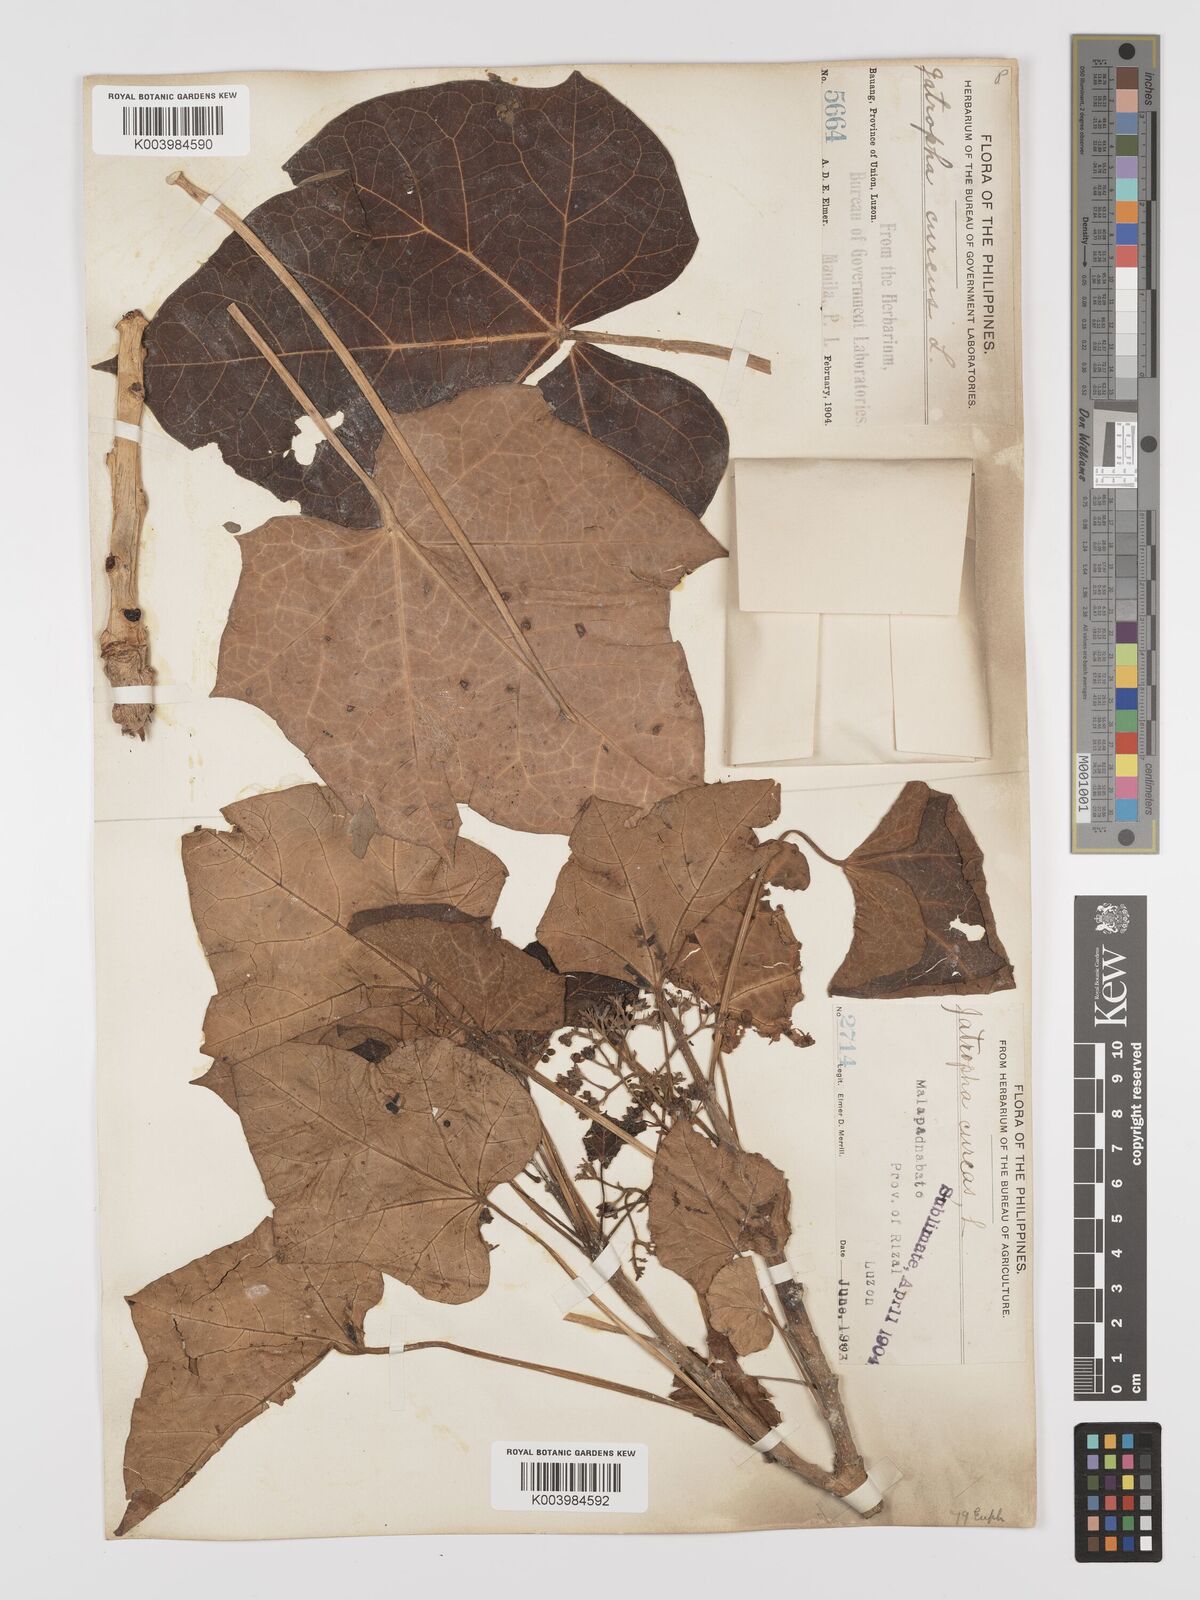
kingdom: Plantae
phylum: Tracheophyta
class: Magnoliopsida
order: Malpighiales
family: Euphorbiaceae
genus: Jatropha
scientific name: Jatropha curcas
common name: Barbados nut
